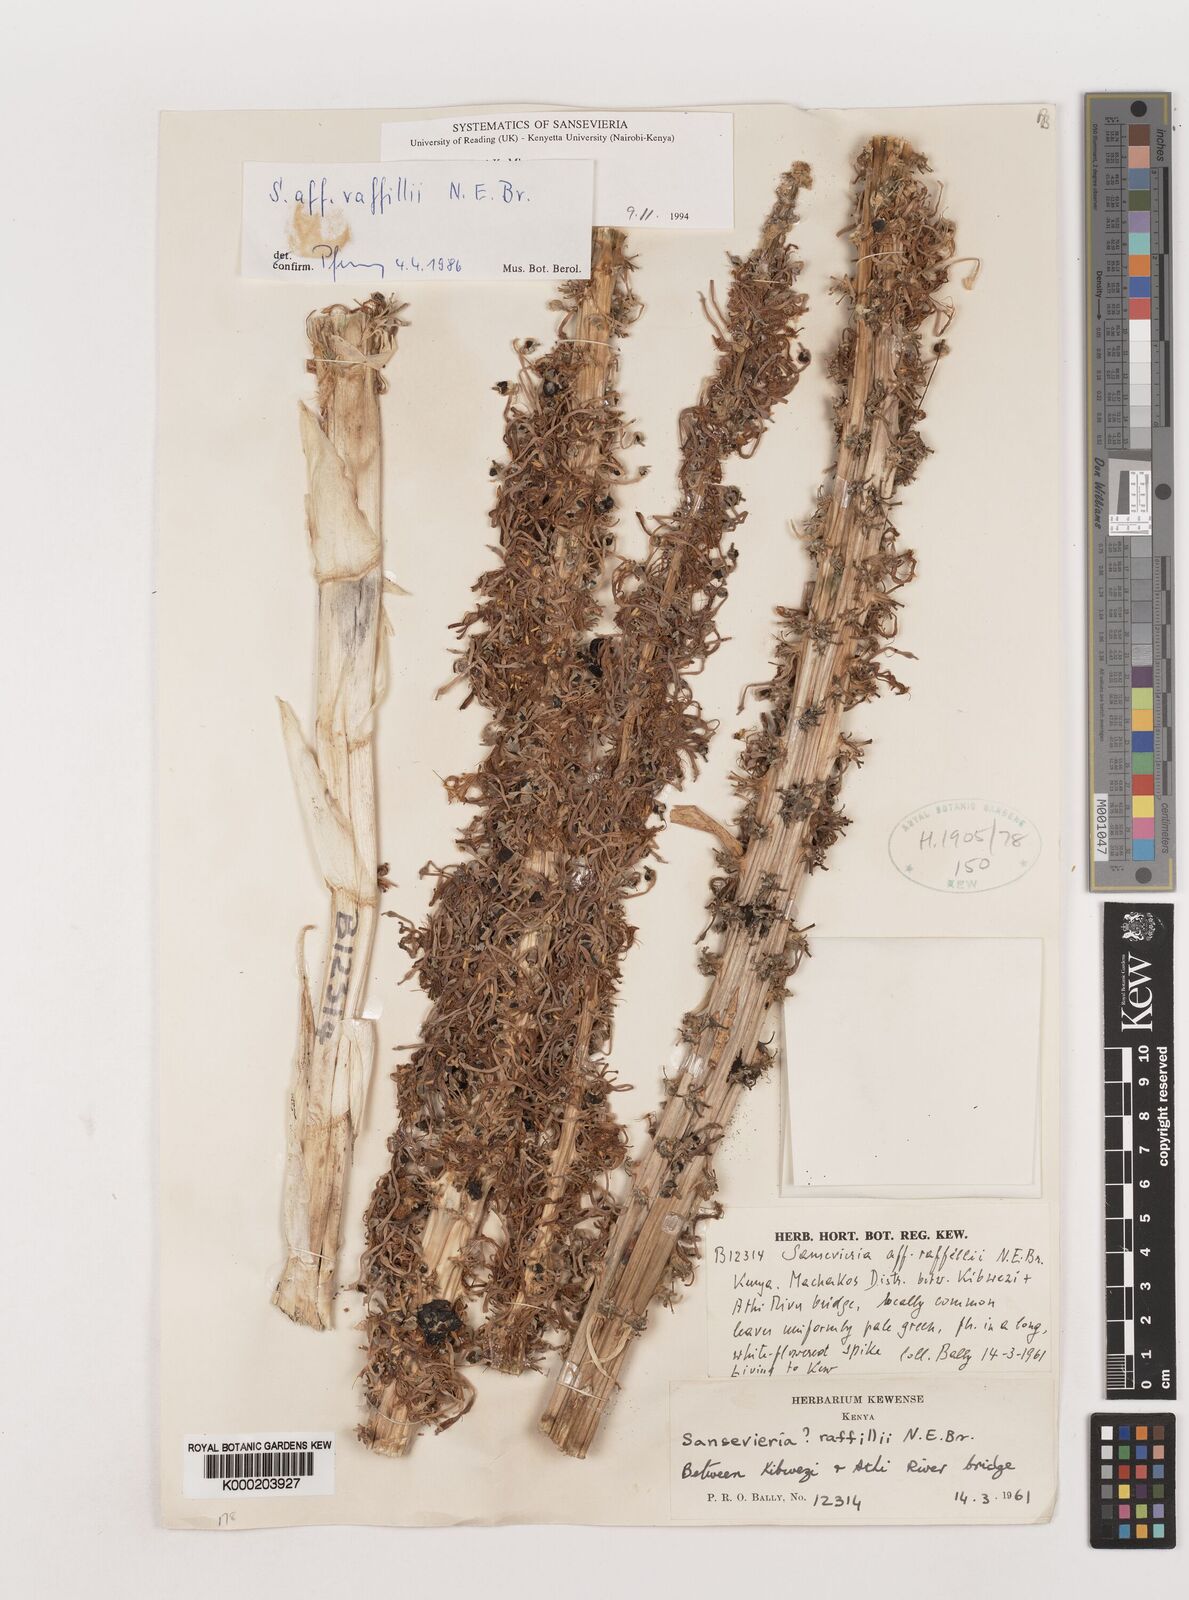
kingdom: Plantae
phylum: Tracheophyta
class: Liliopsida
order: Asparagales
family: Asparagaceae
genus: Dracaena
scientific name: Dracaena raffillii
